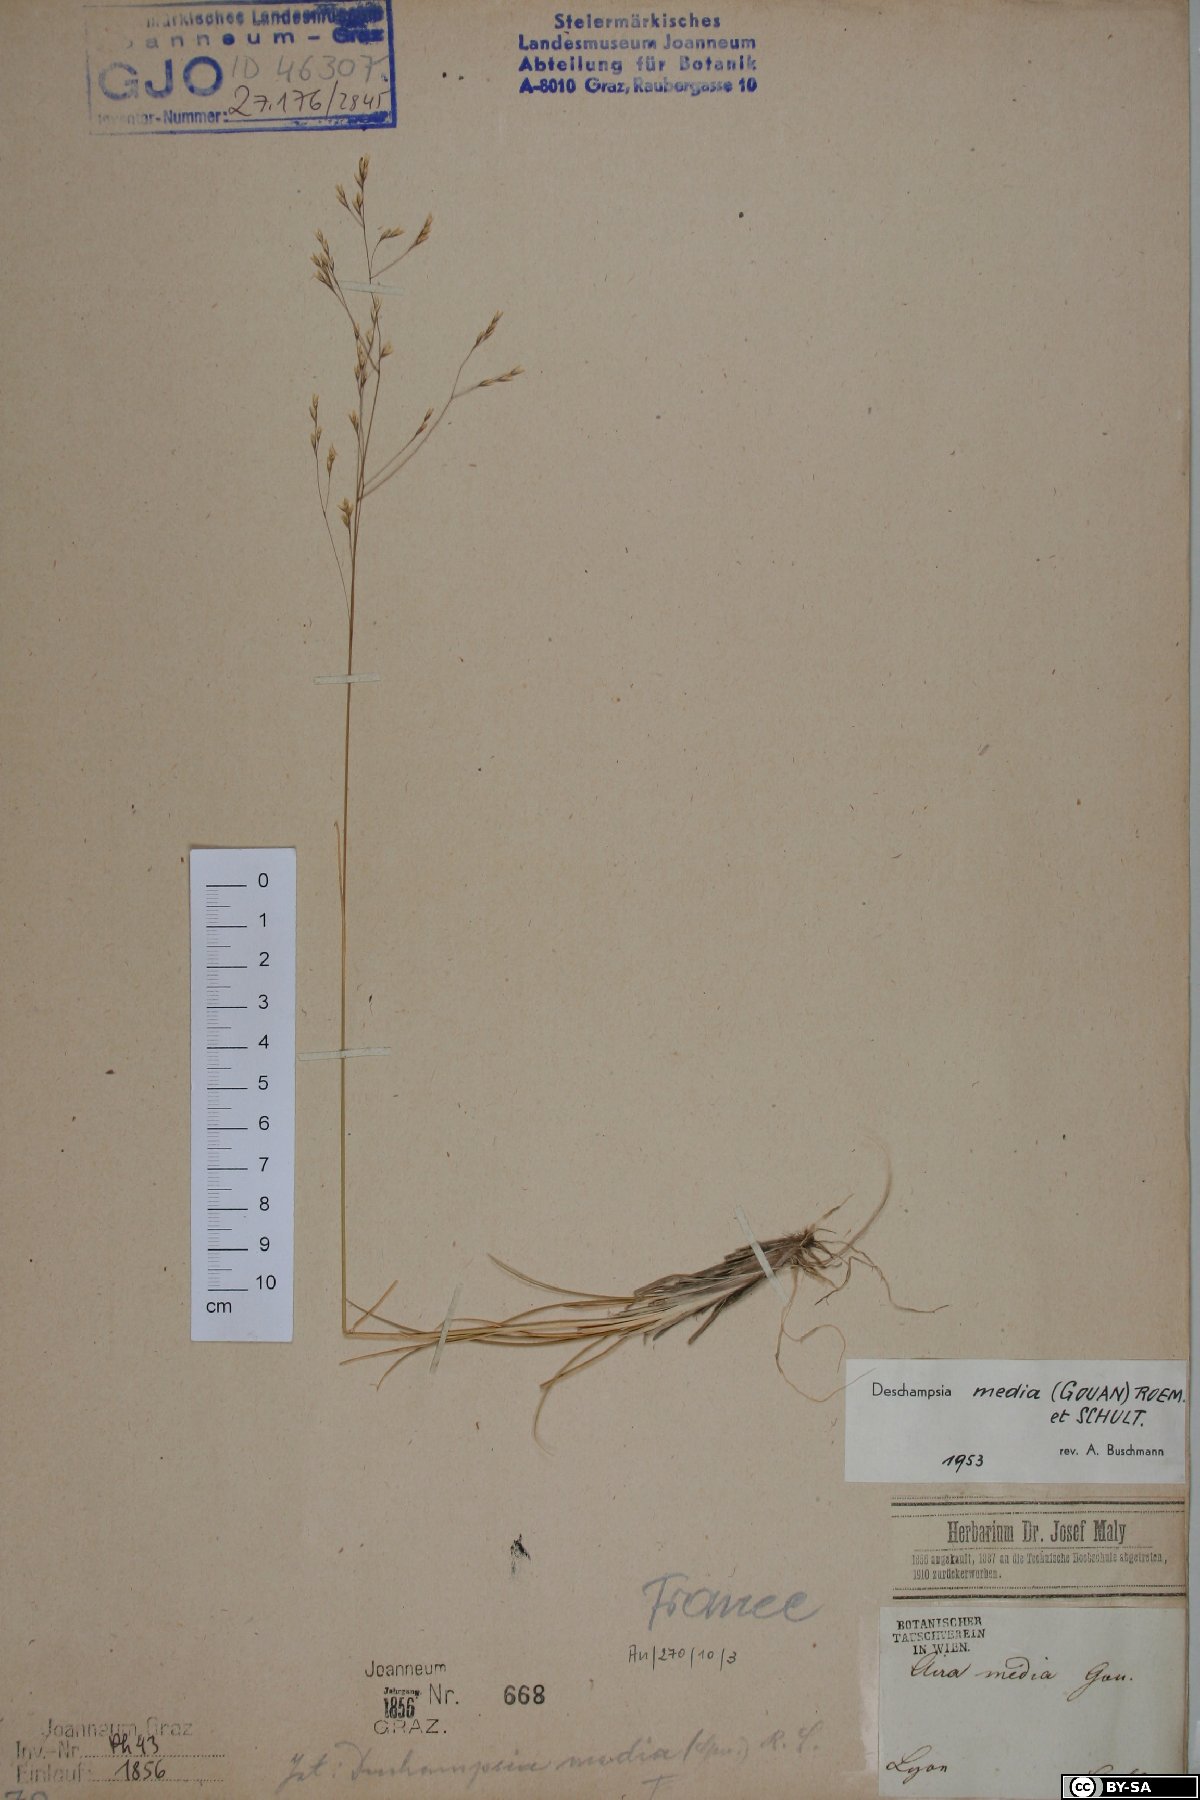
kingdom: Plantae
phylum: Tracheophyta
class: Liliopsida
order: Poales
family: Poaceae
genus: Deschampsia
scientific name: Deschampsia media
